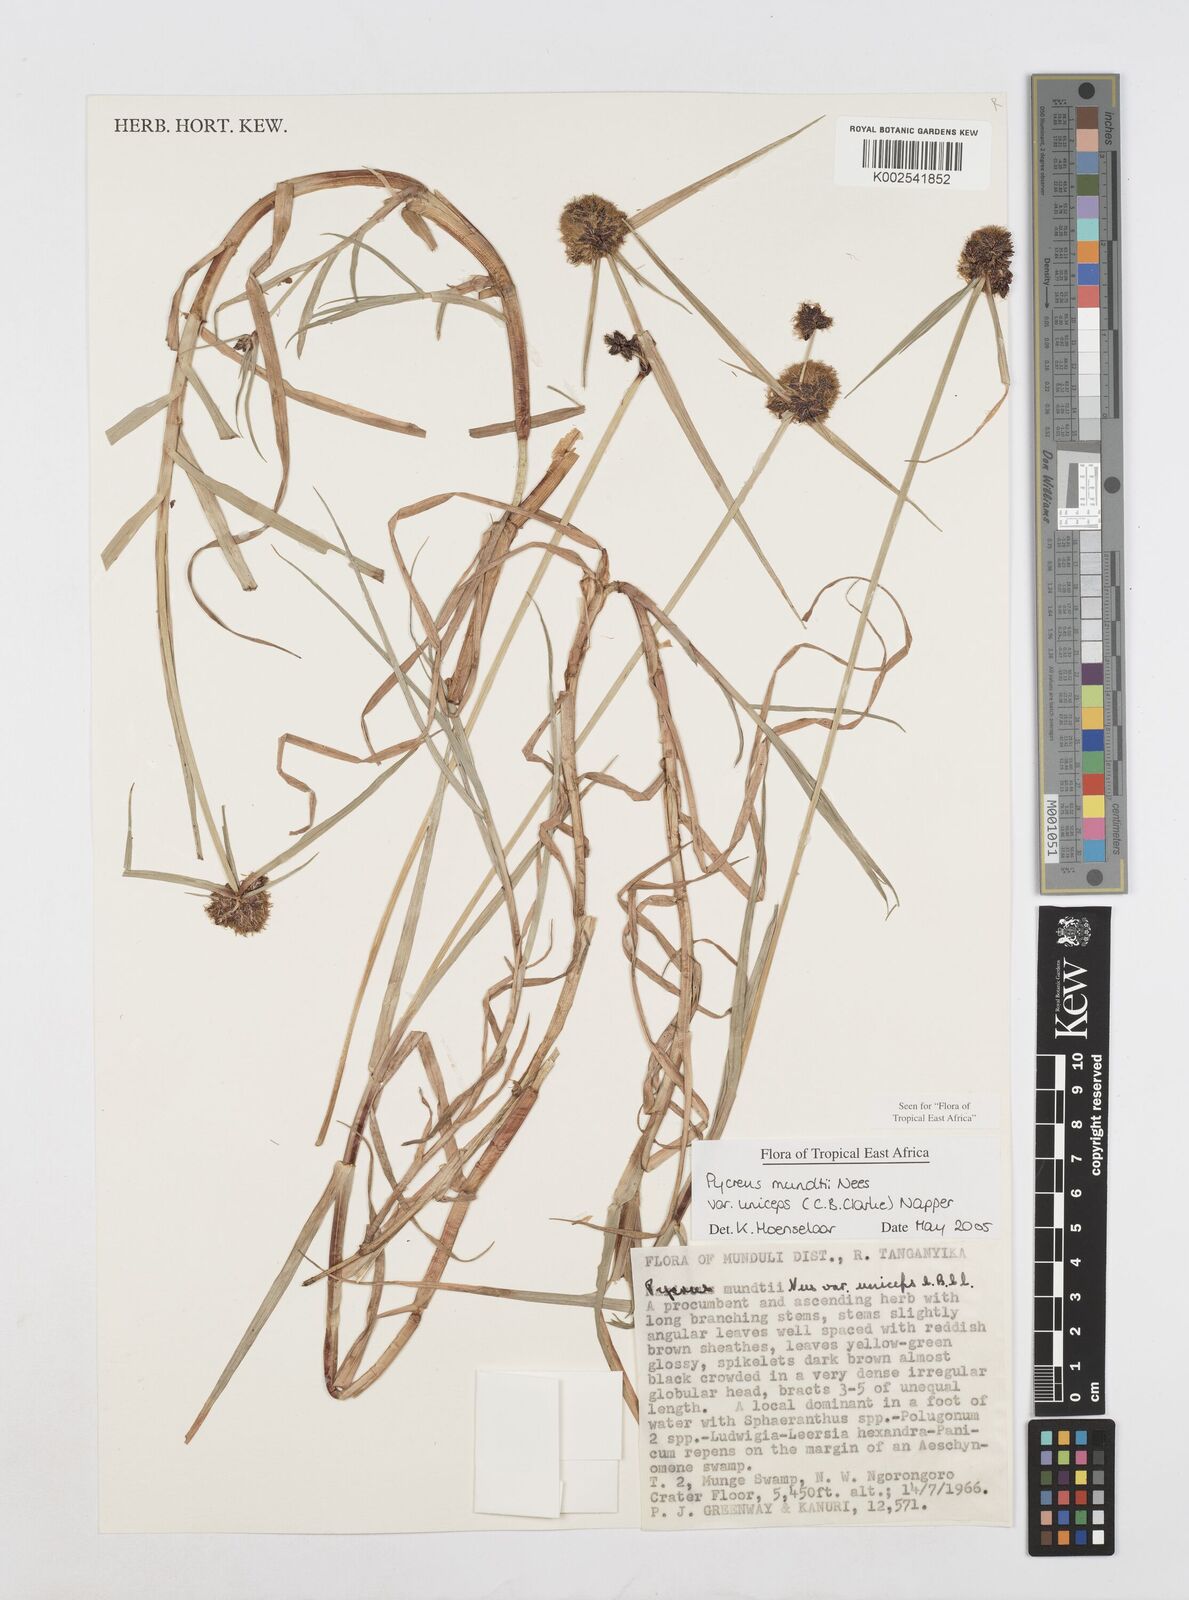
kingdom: Plantae
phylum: Tracheophyta
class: Liliopsida
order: Poales
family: Cyperaceae
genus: Cyperus
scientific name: Cyperus mundii
